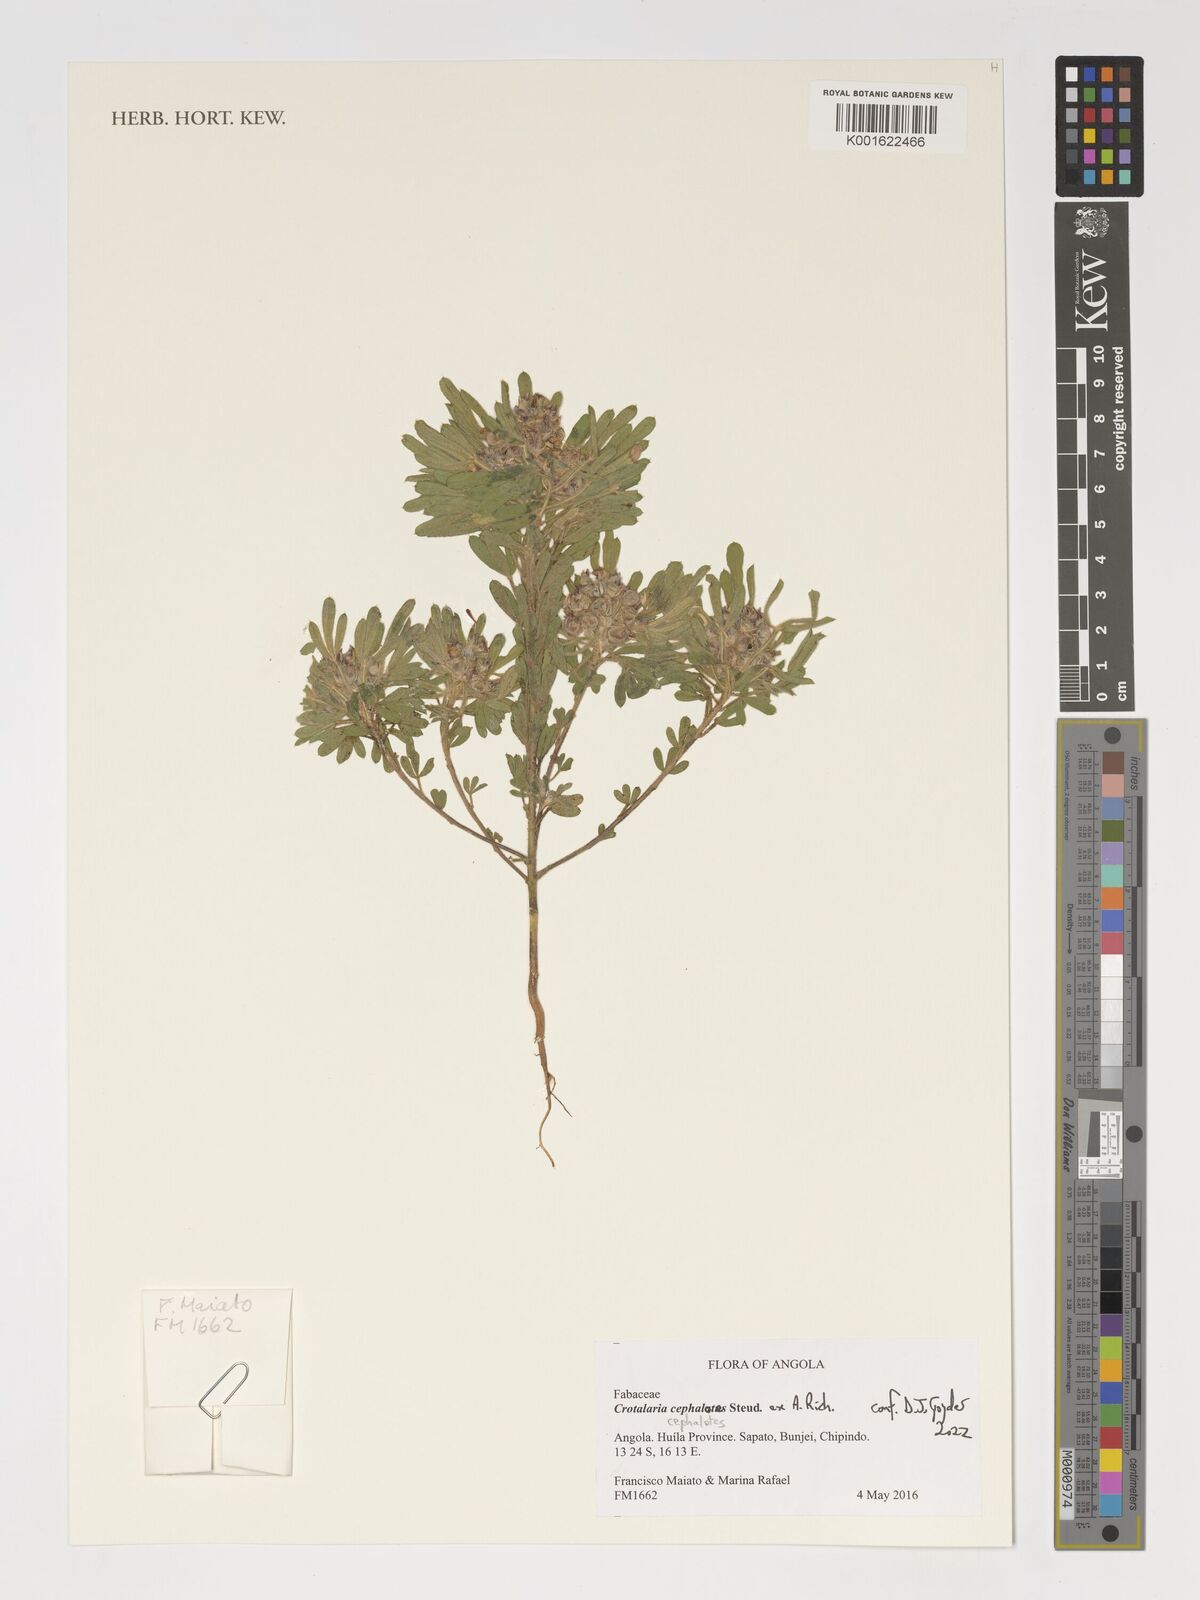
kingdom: Plantae
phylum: Tracheophyta
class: Magnoliopsida
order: Fabales
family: Fabaceae
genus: Crotalaria
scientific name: Crotalaria cephalotes
